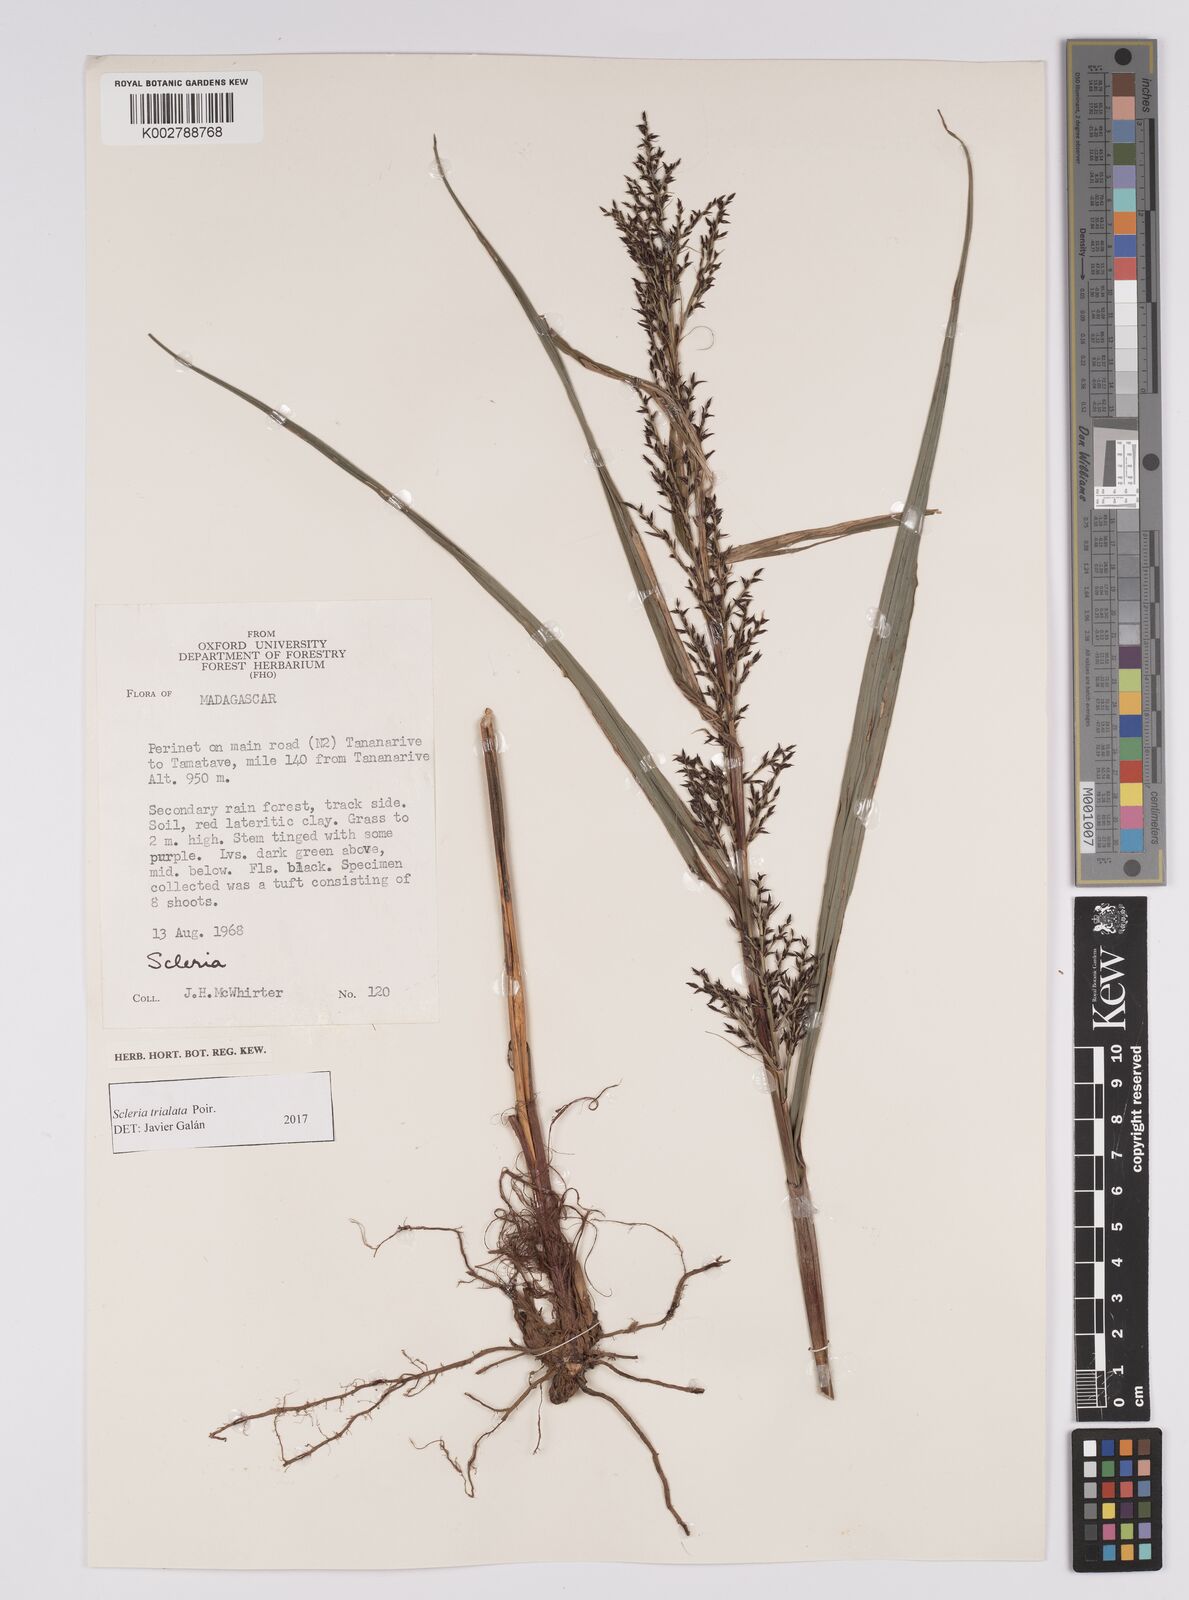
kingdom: Plantae
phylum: Tracheophyta
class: Liliopsida
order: Poales
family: Cyperaceae
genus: Scleria
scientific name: Scleria trialata
